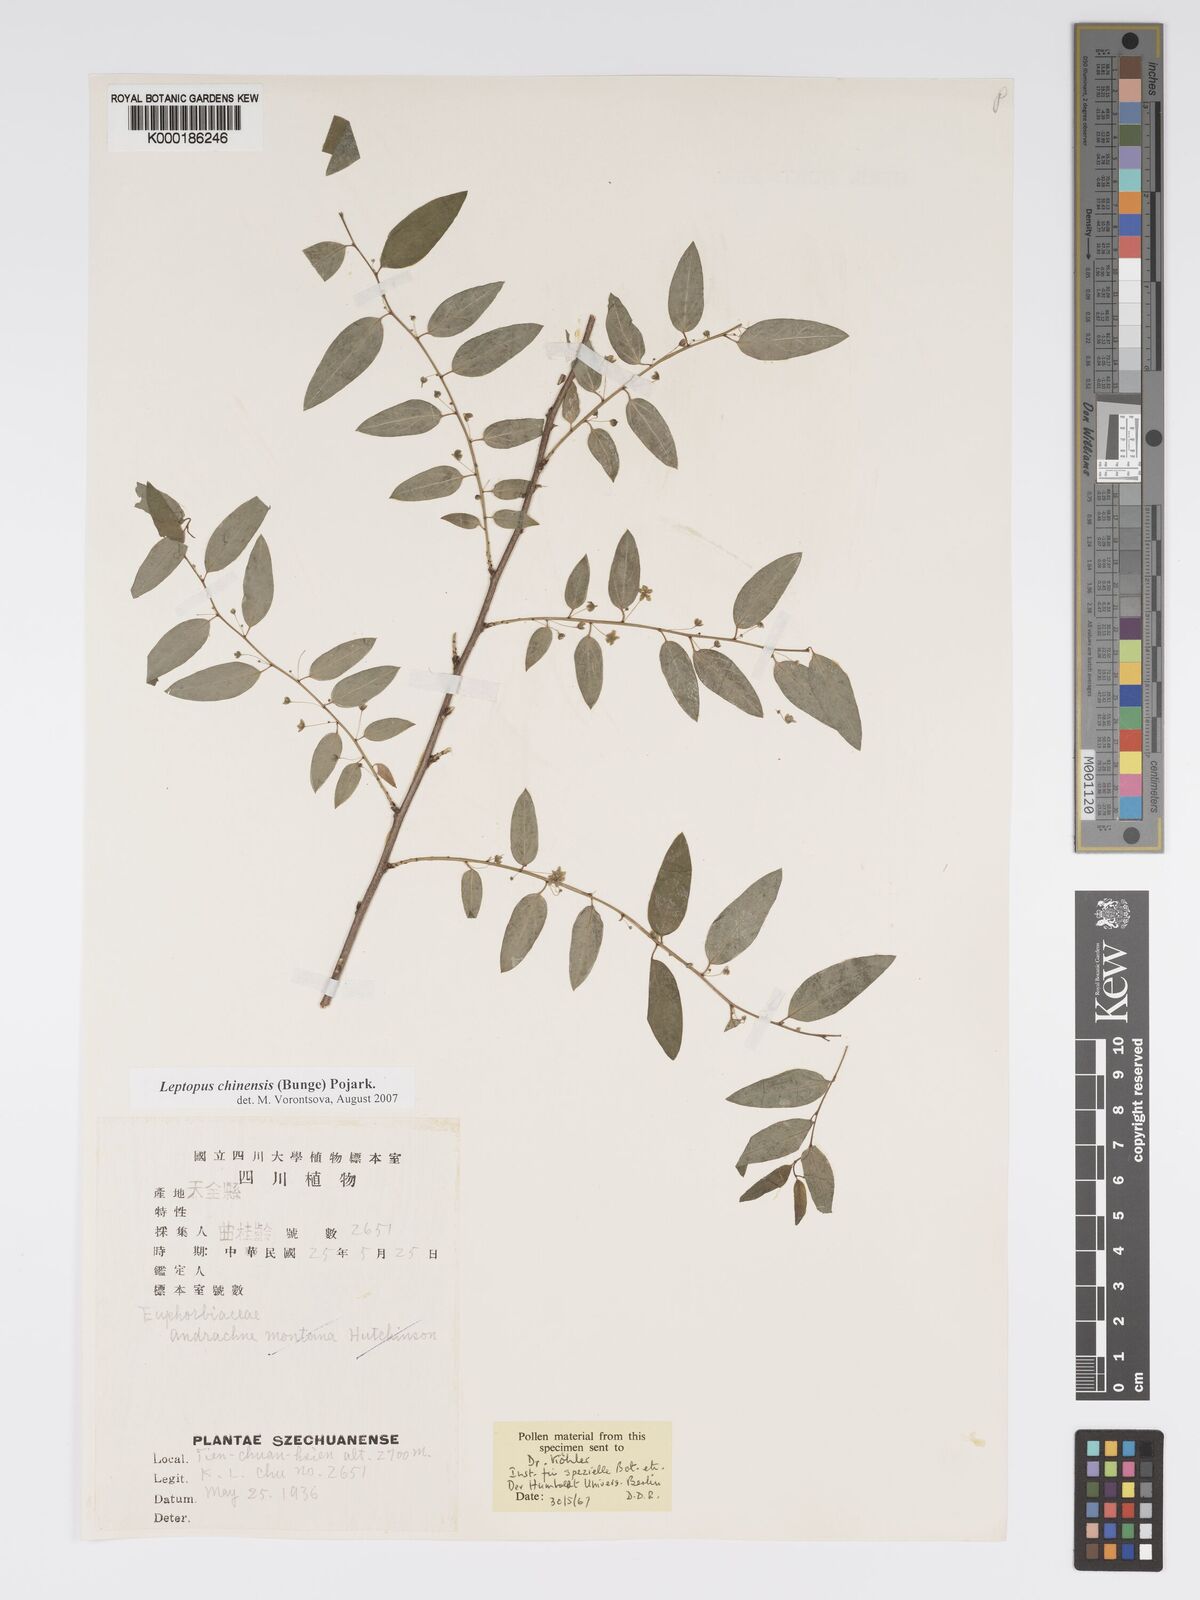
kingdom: Plantae
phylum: Tracheophyta
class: Magnoliopsida
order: Malpighiales
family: Phyllanthaceae
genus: Leptopus
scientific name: Leptopus chinensis
